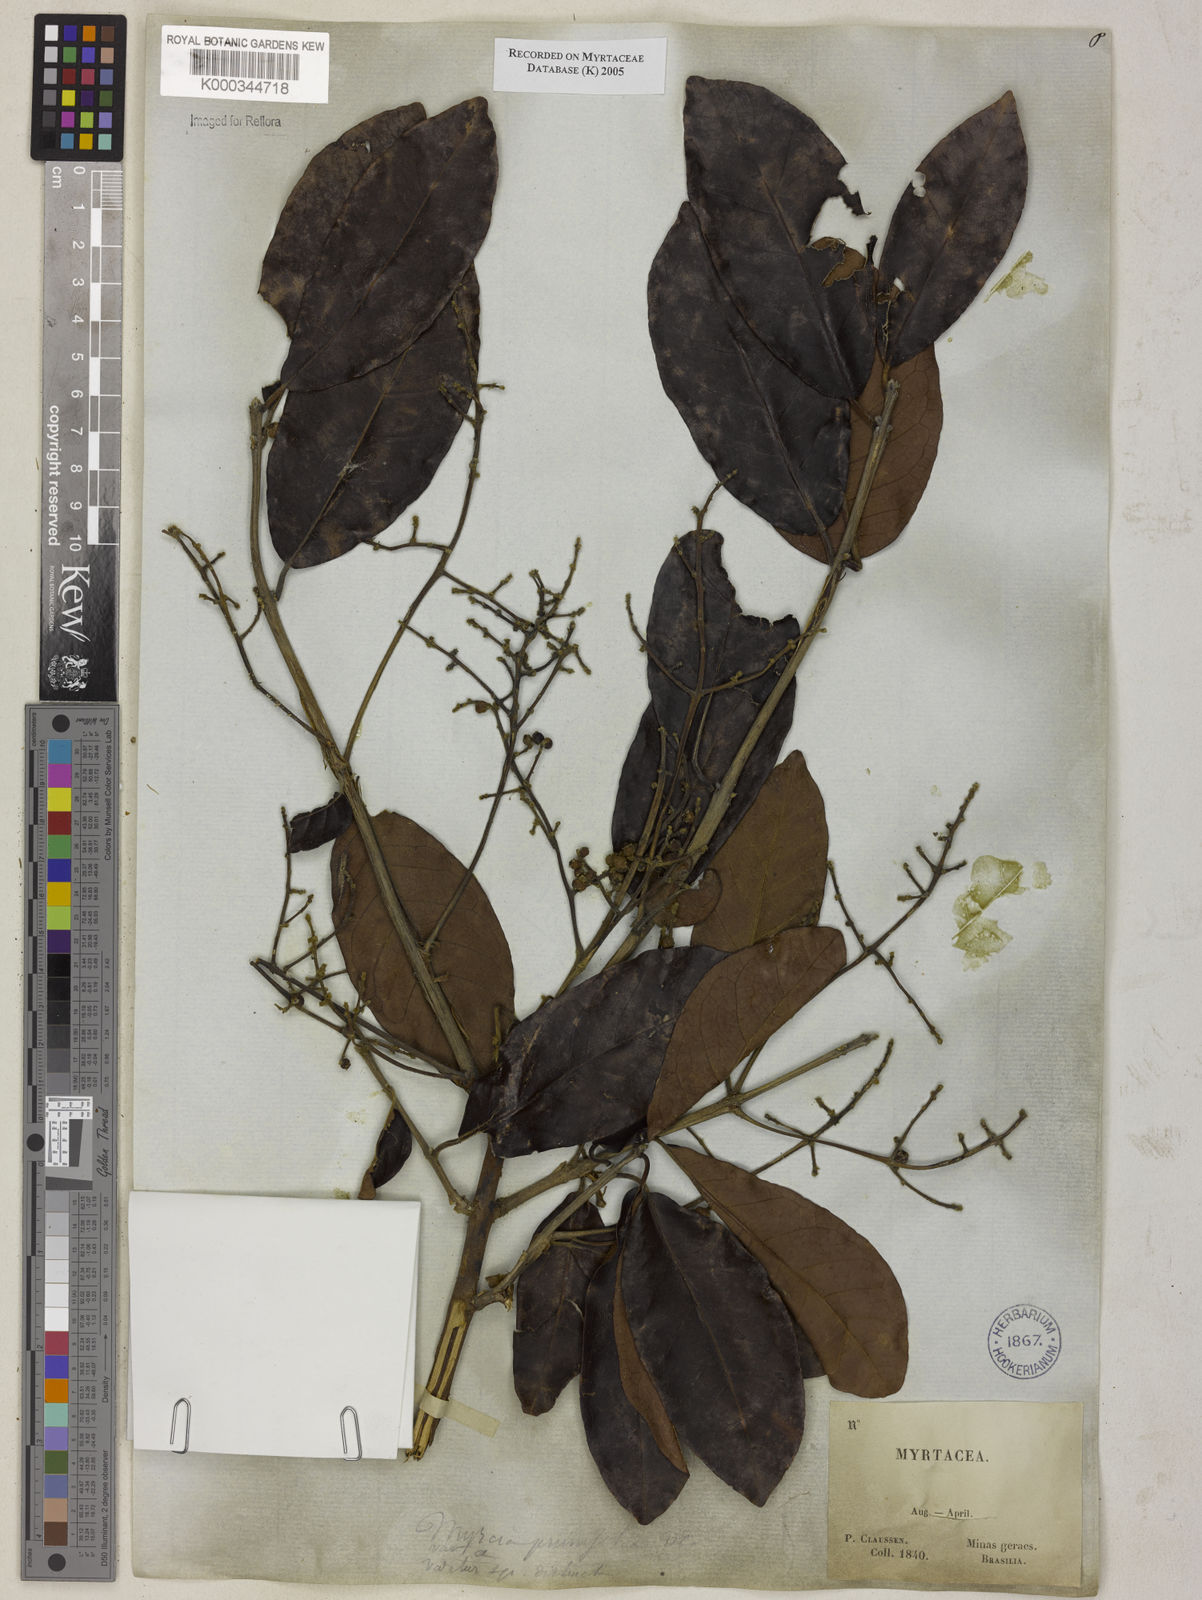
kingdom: Plantae
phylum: Tracheophyta
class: Magnoliopsida
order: Myrtales
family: Myrtaceae
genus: Myrcia
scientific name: Myrcia tomentosa
